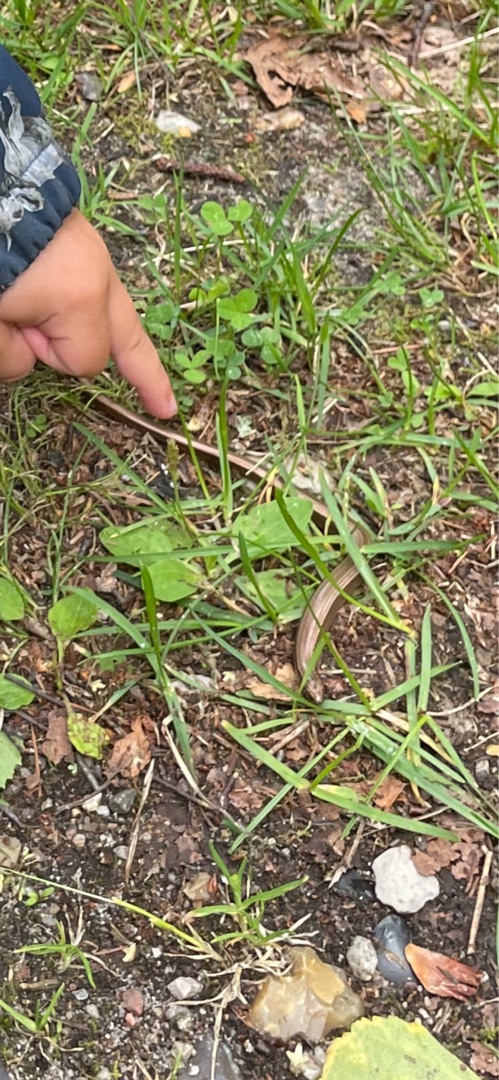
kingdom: Animalia
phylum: Chordata
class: Squamata
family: Anguidae
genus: Anguis
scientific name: Anguis fragilis
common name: Stålorm
